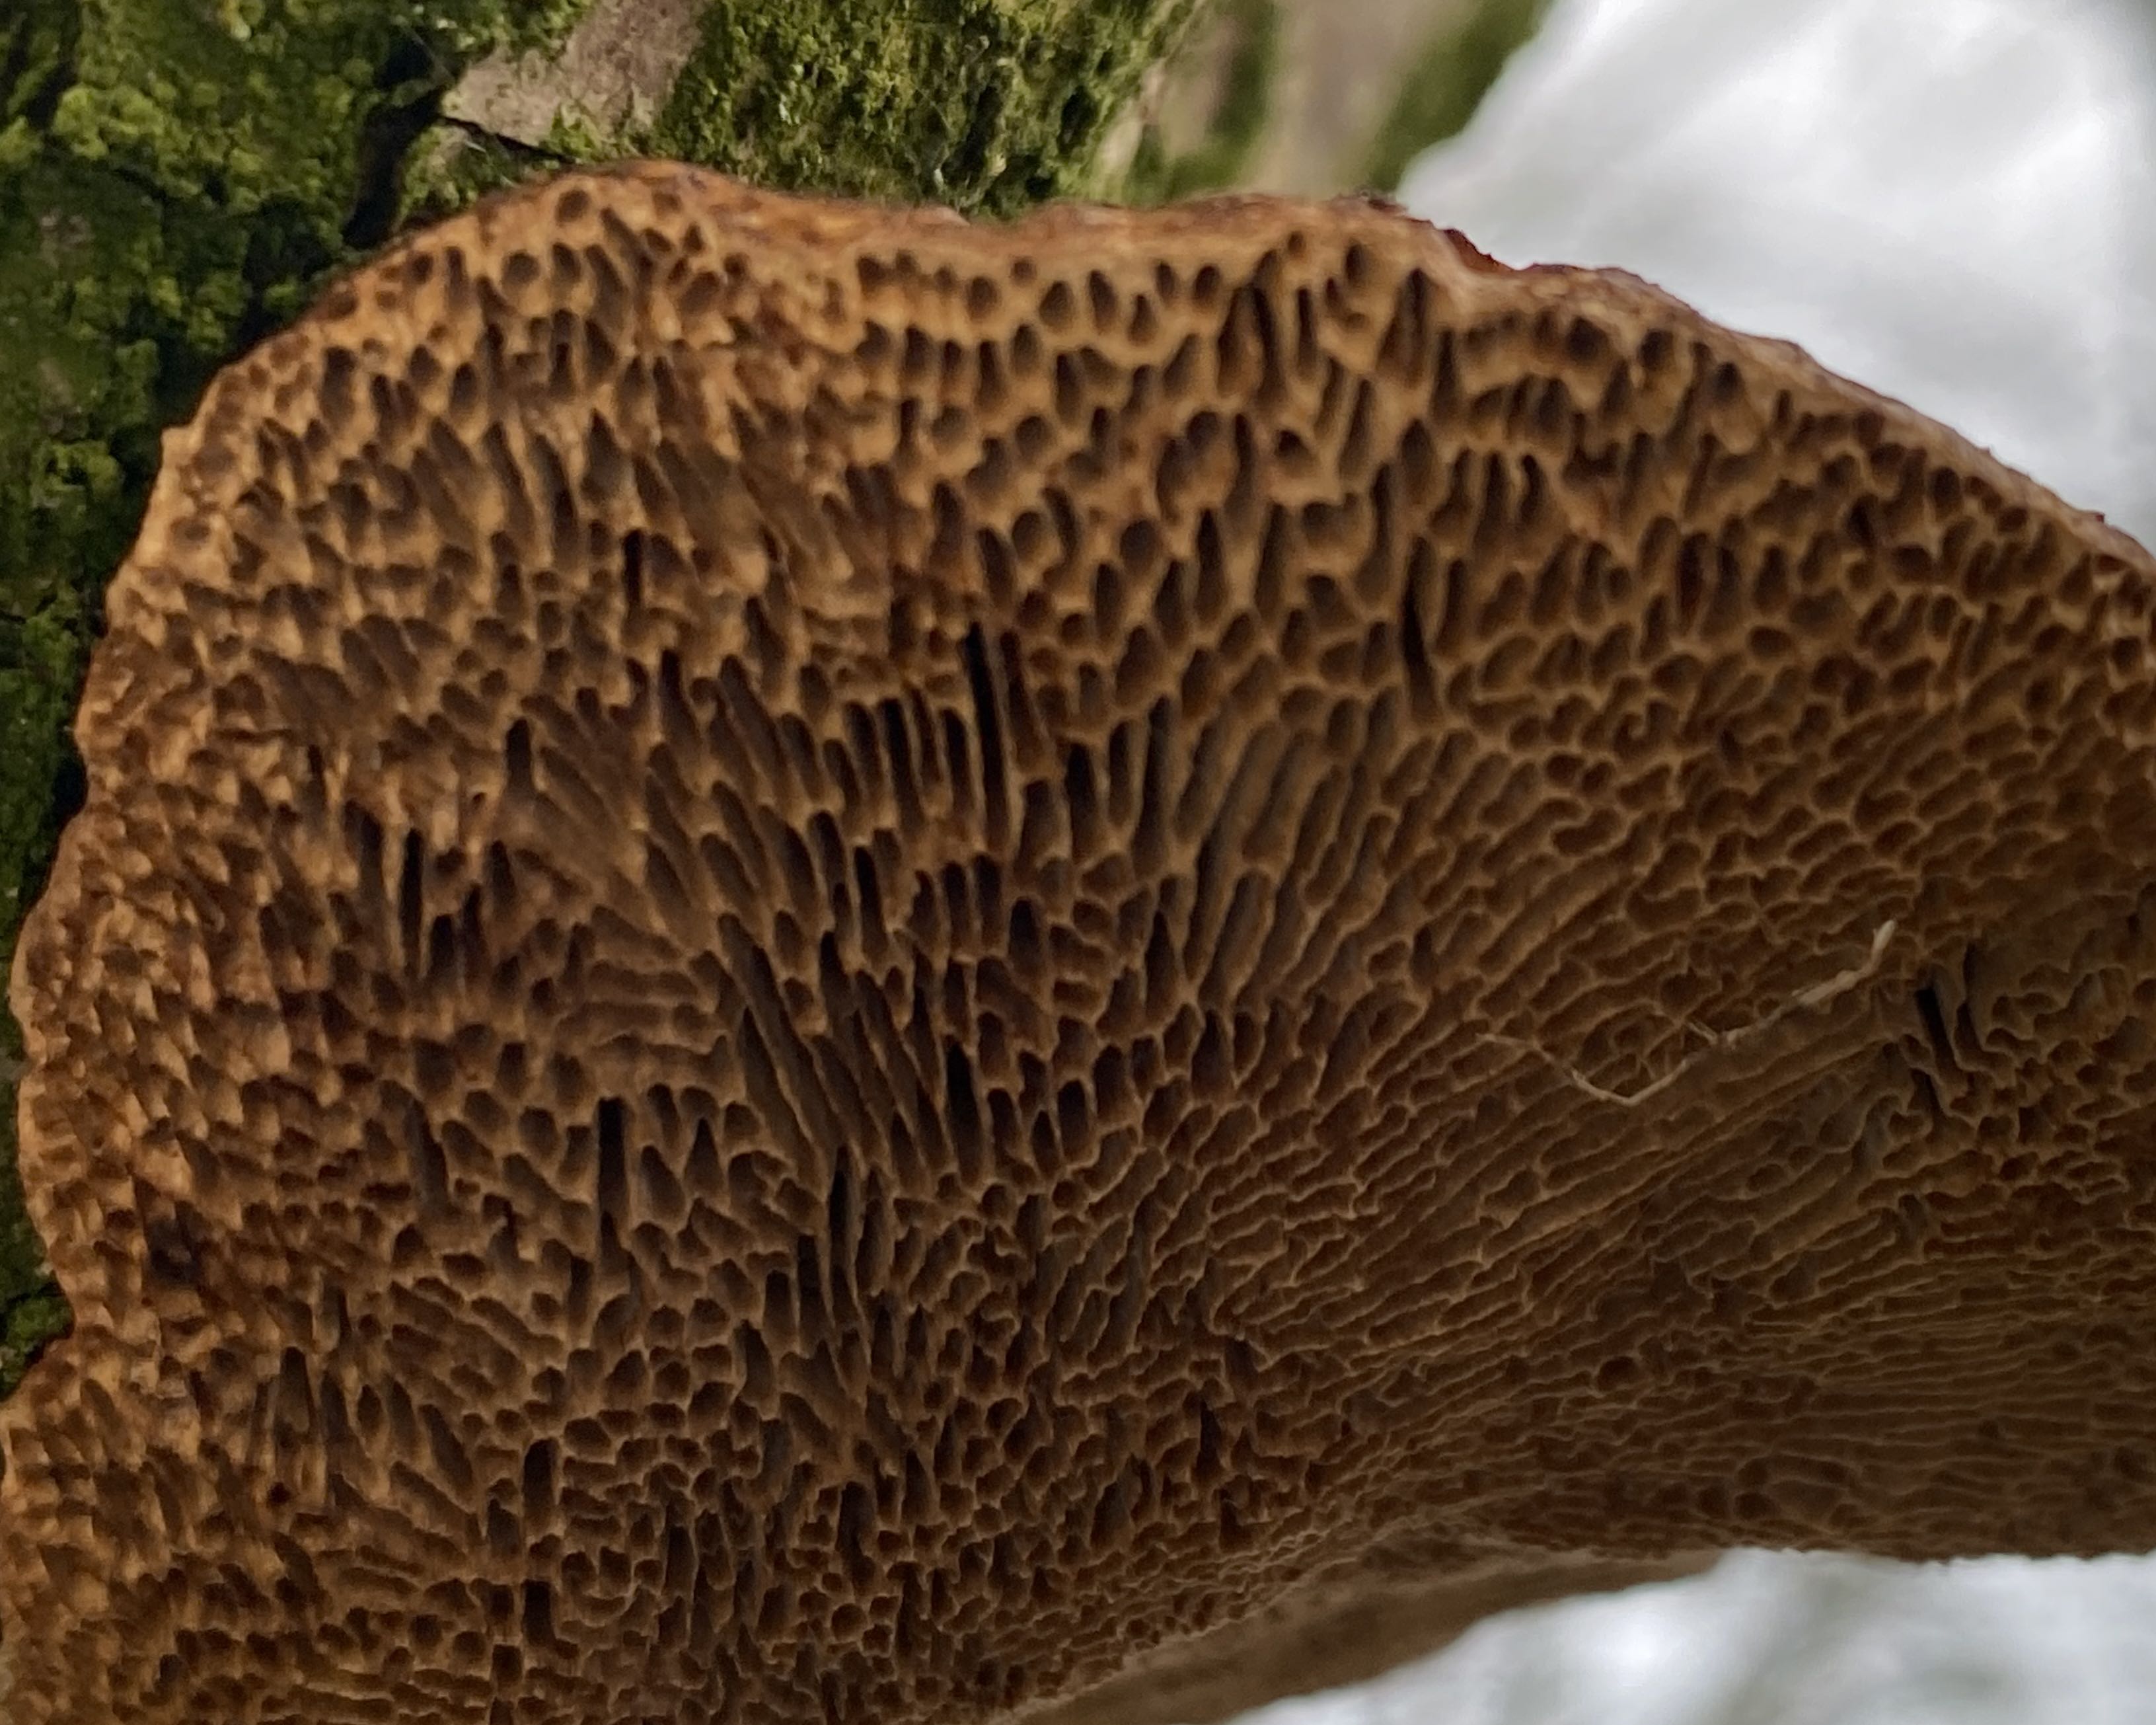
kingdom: Fungi
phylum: Basidiomycota
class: Agaricomycetes
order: Polyporales
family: Polyporaceae
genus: Daedaleopsis
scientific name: Daedaleopsis confragosa
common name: rødmende læderporesvamp
